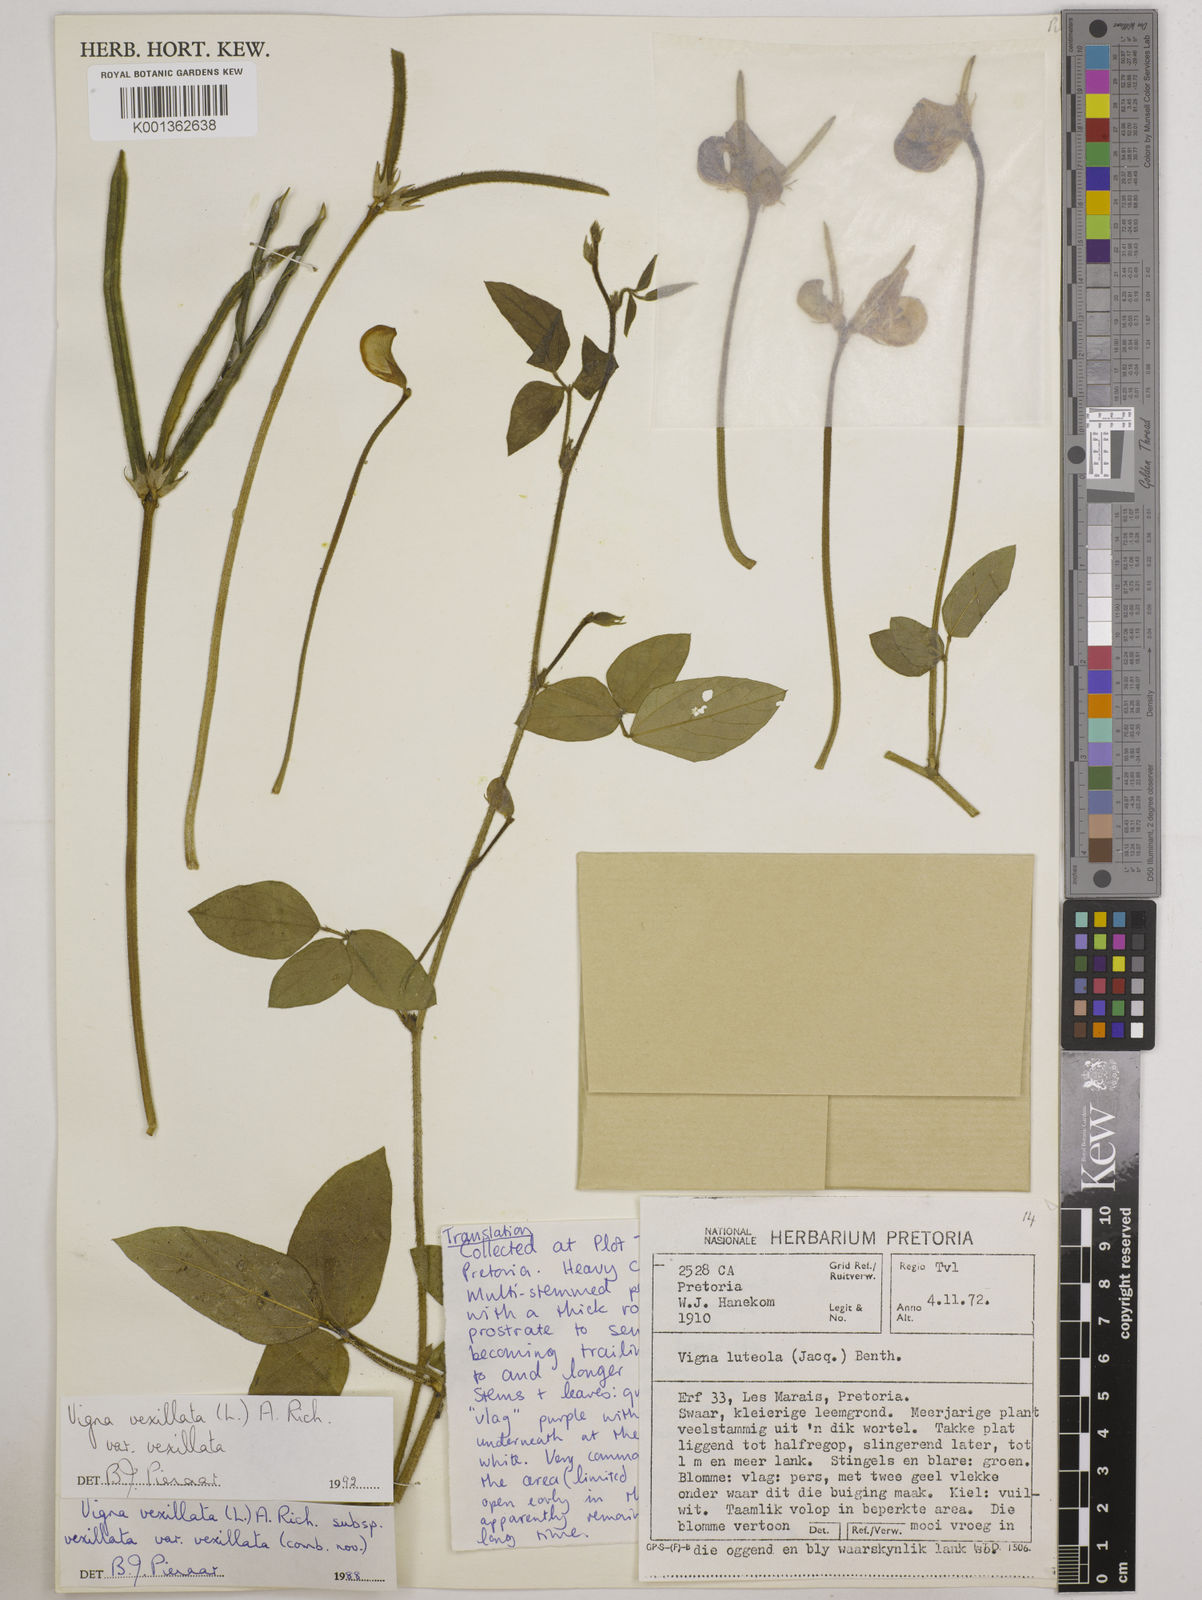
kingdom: Plantae
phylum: Tracheophyta
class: Magnoliopsida
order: Fabales
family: Fabaceae
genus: Vigna
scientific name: Vigna vexillata
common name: Zombi pea
